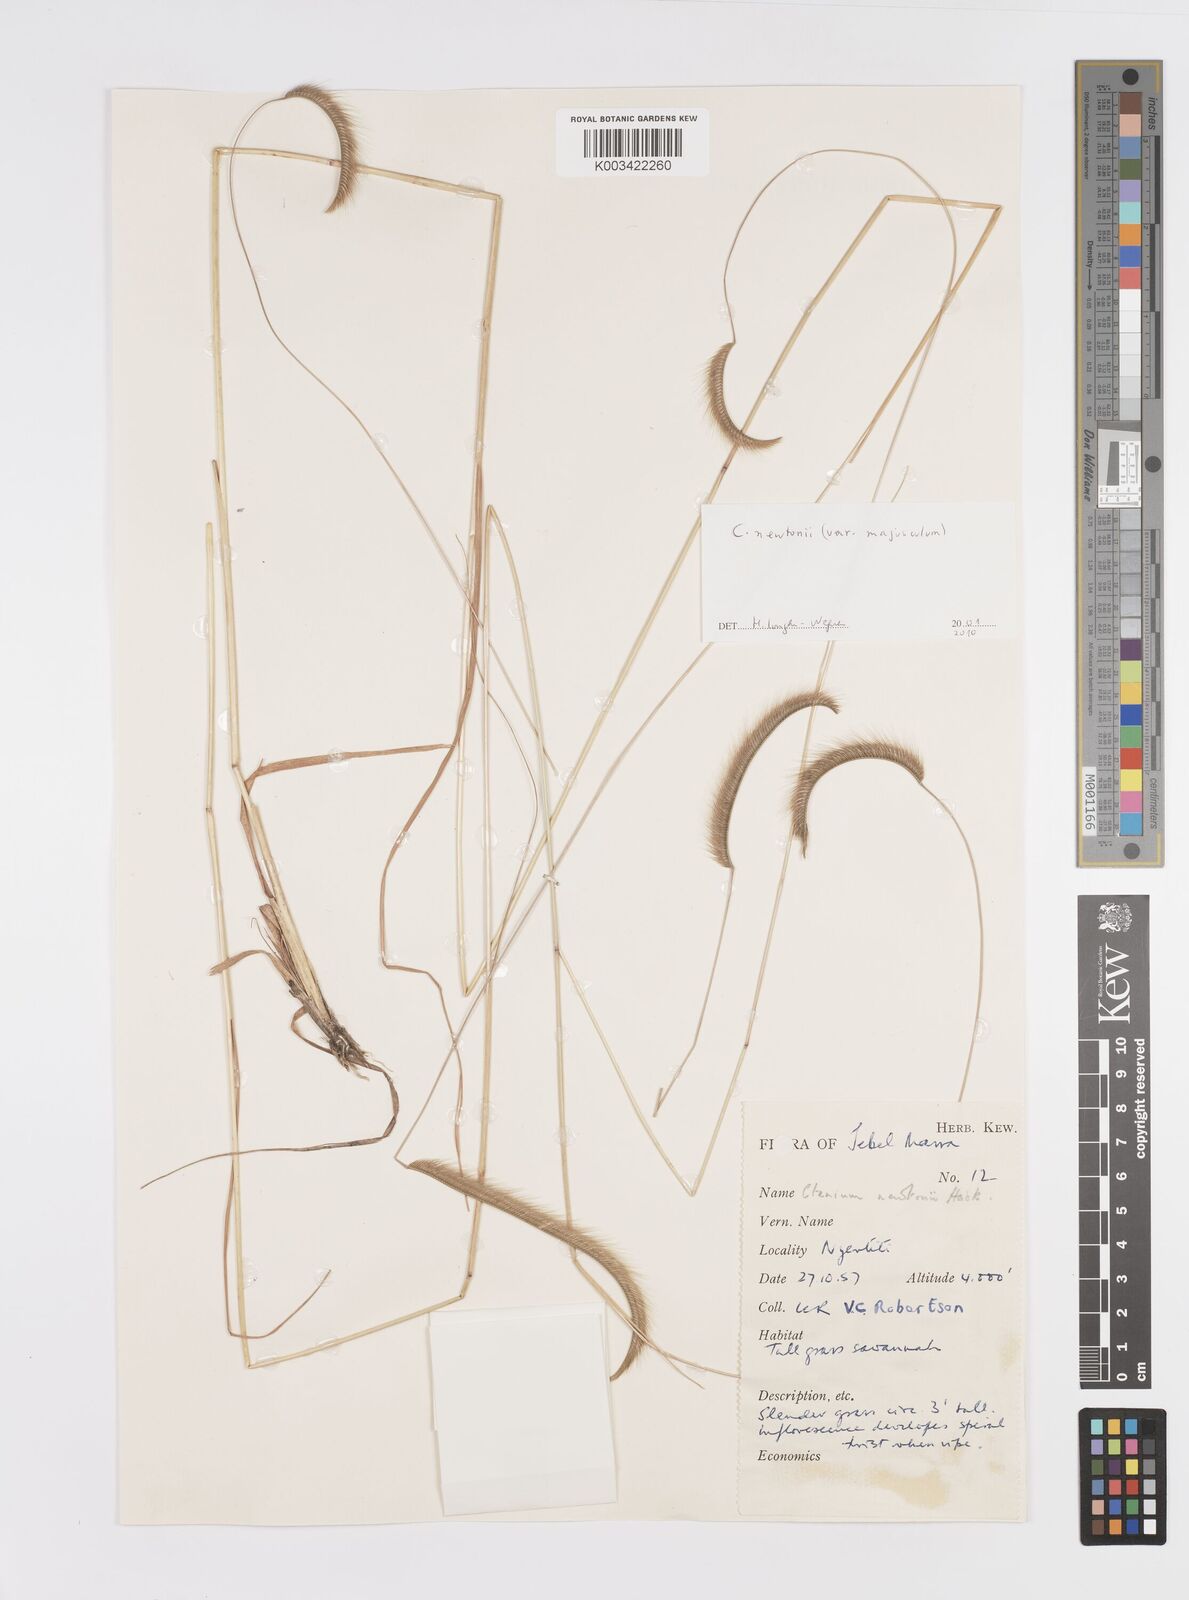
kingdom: Plantae
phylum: Tracheophyta
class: Liliopsida
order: Poales
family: Poaceae
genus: Ctenium
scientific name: Ctenium newtonii
